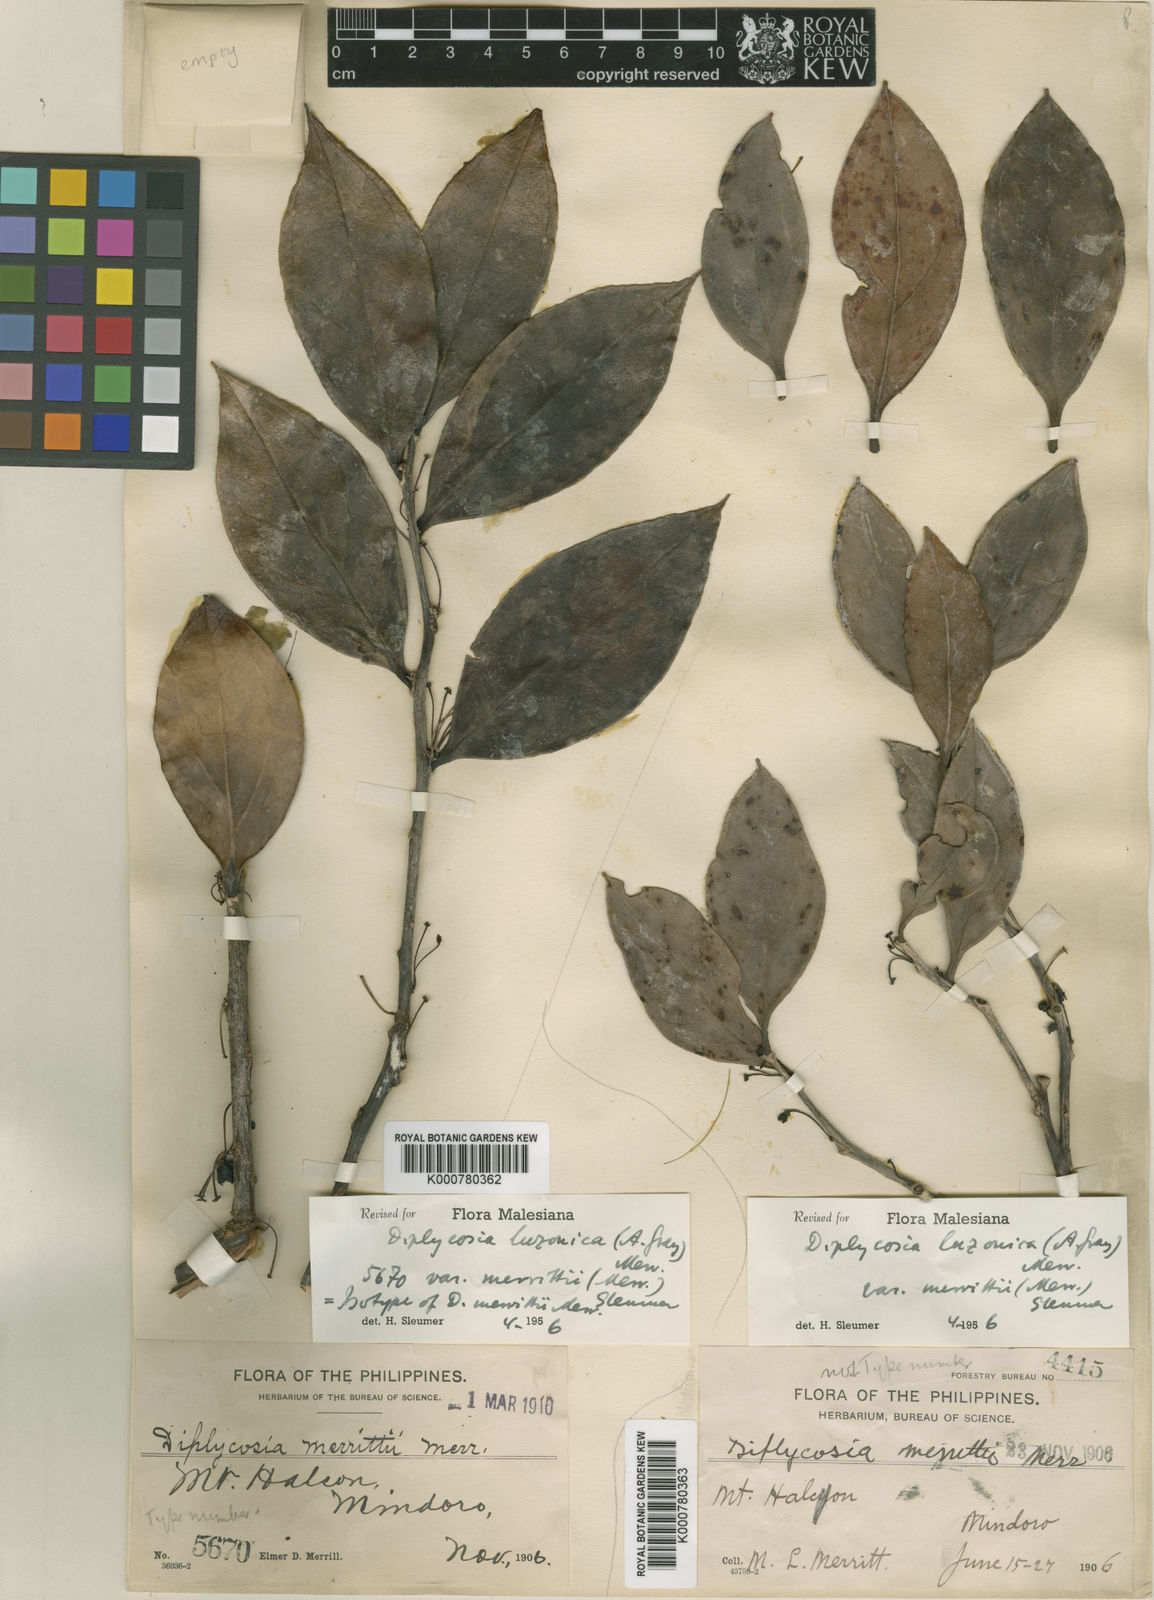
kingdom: Plantae
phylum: Tracheophyta
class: Magnoliopsida
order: Ericales
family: Ericaceae
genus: Gaultheria
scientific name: Gaultheria luzonica
